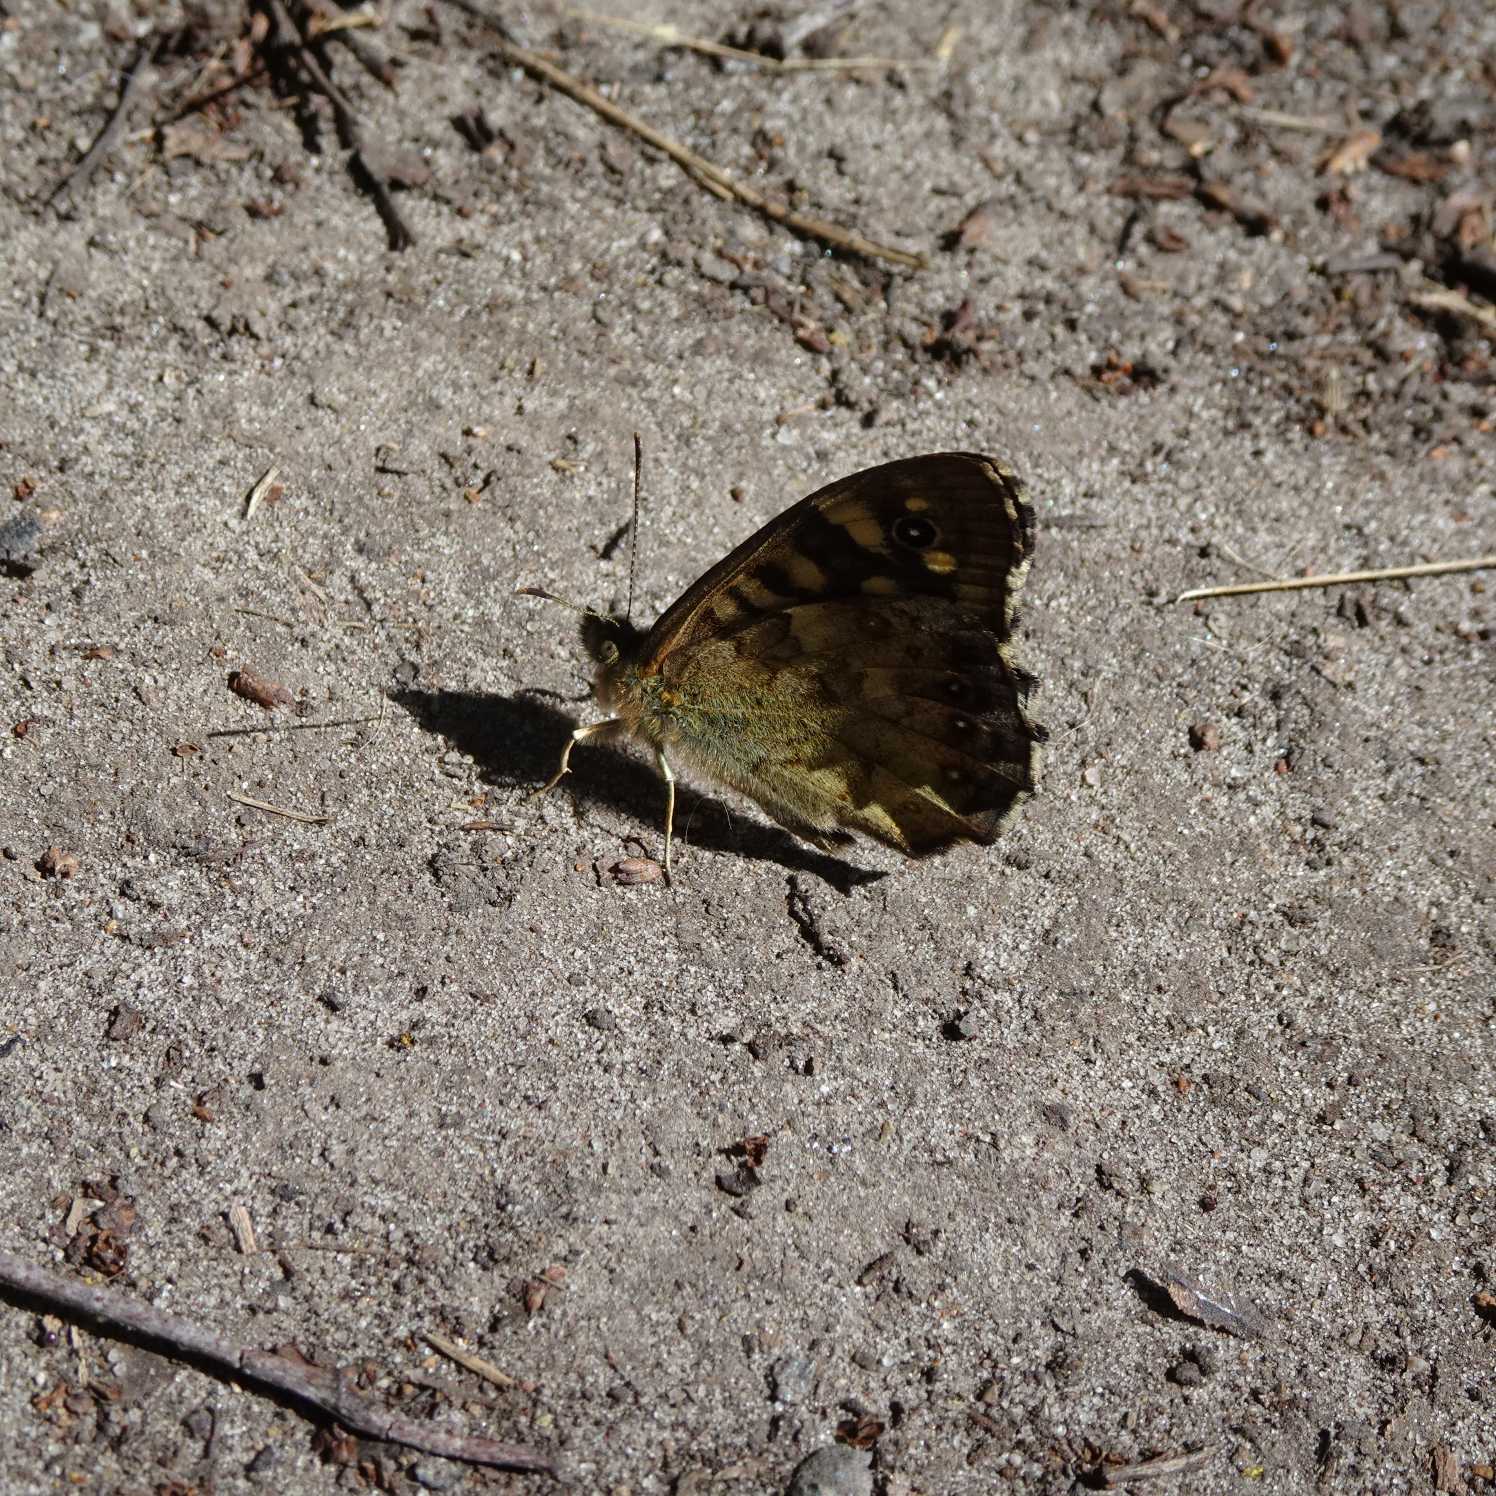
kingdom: Animalia
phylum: Arthropoda
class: Insecta
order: Lepidoptera
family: Nymphalidae
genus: Pararge
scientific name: Pararge aegeria
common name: Skovrandøje
